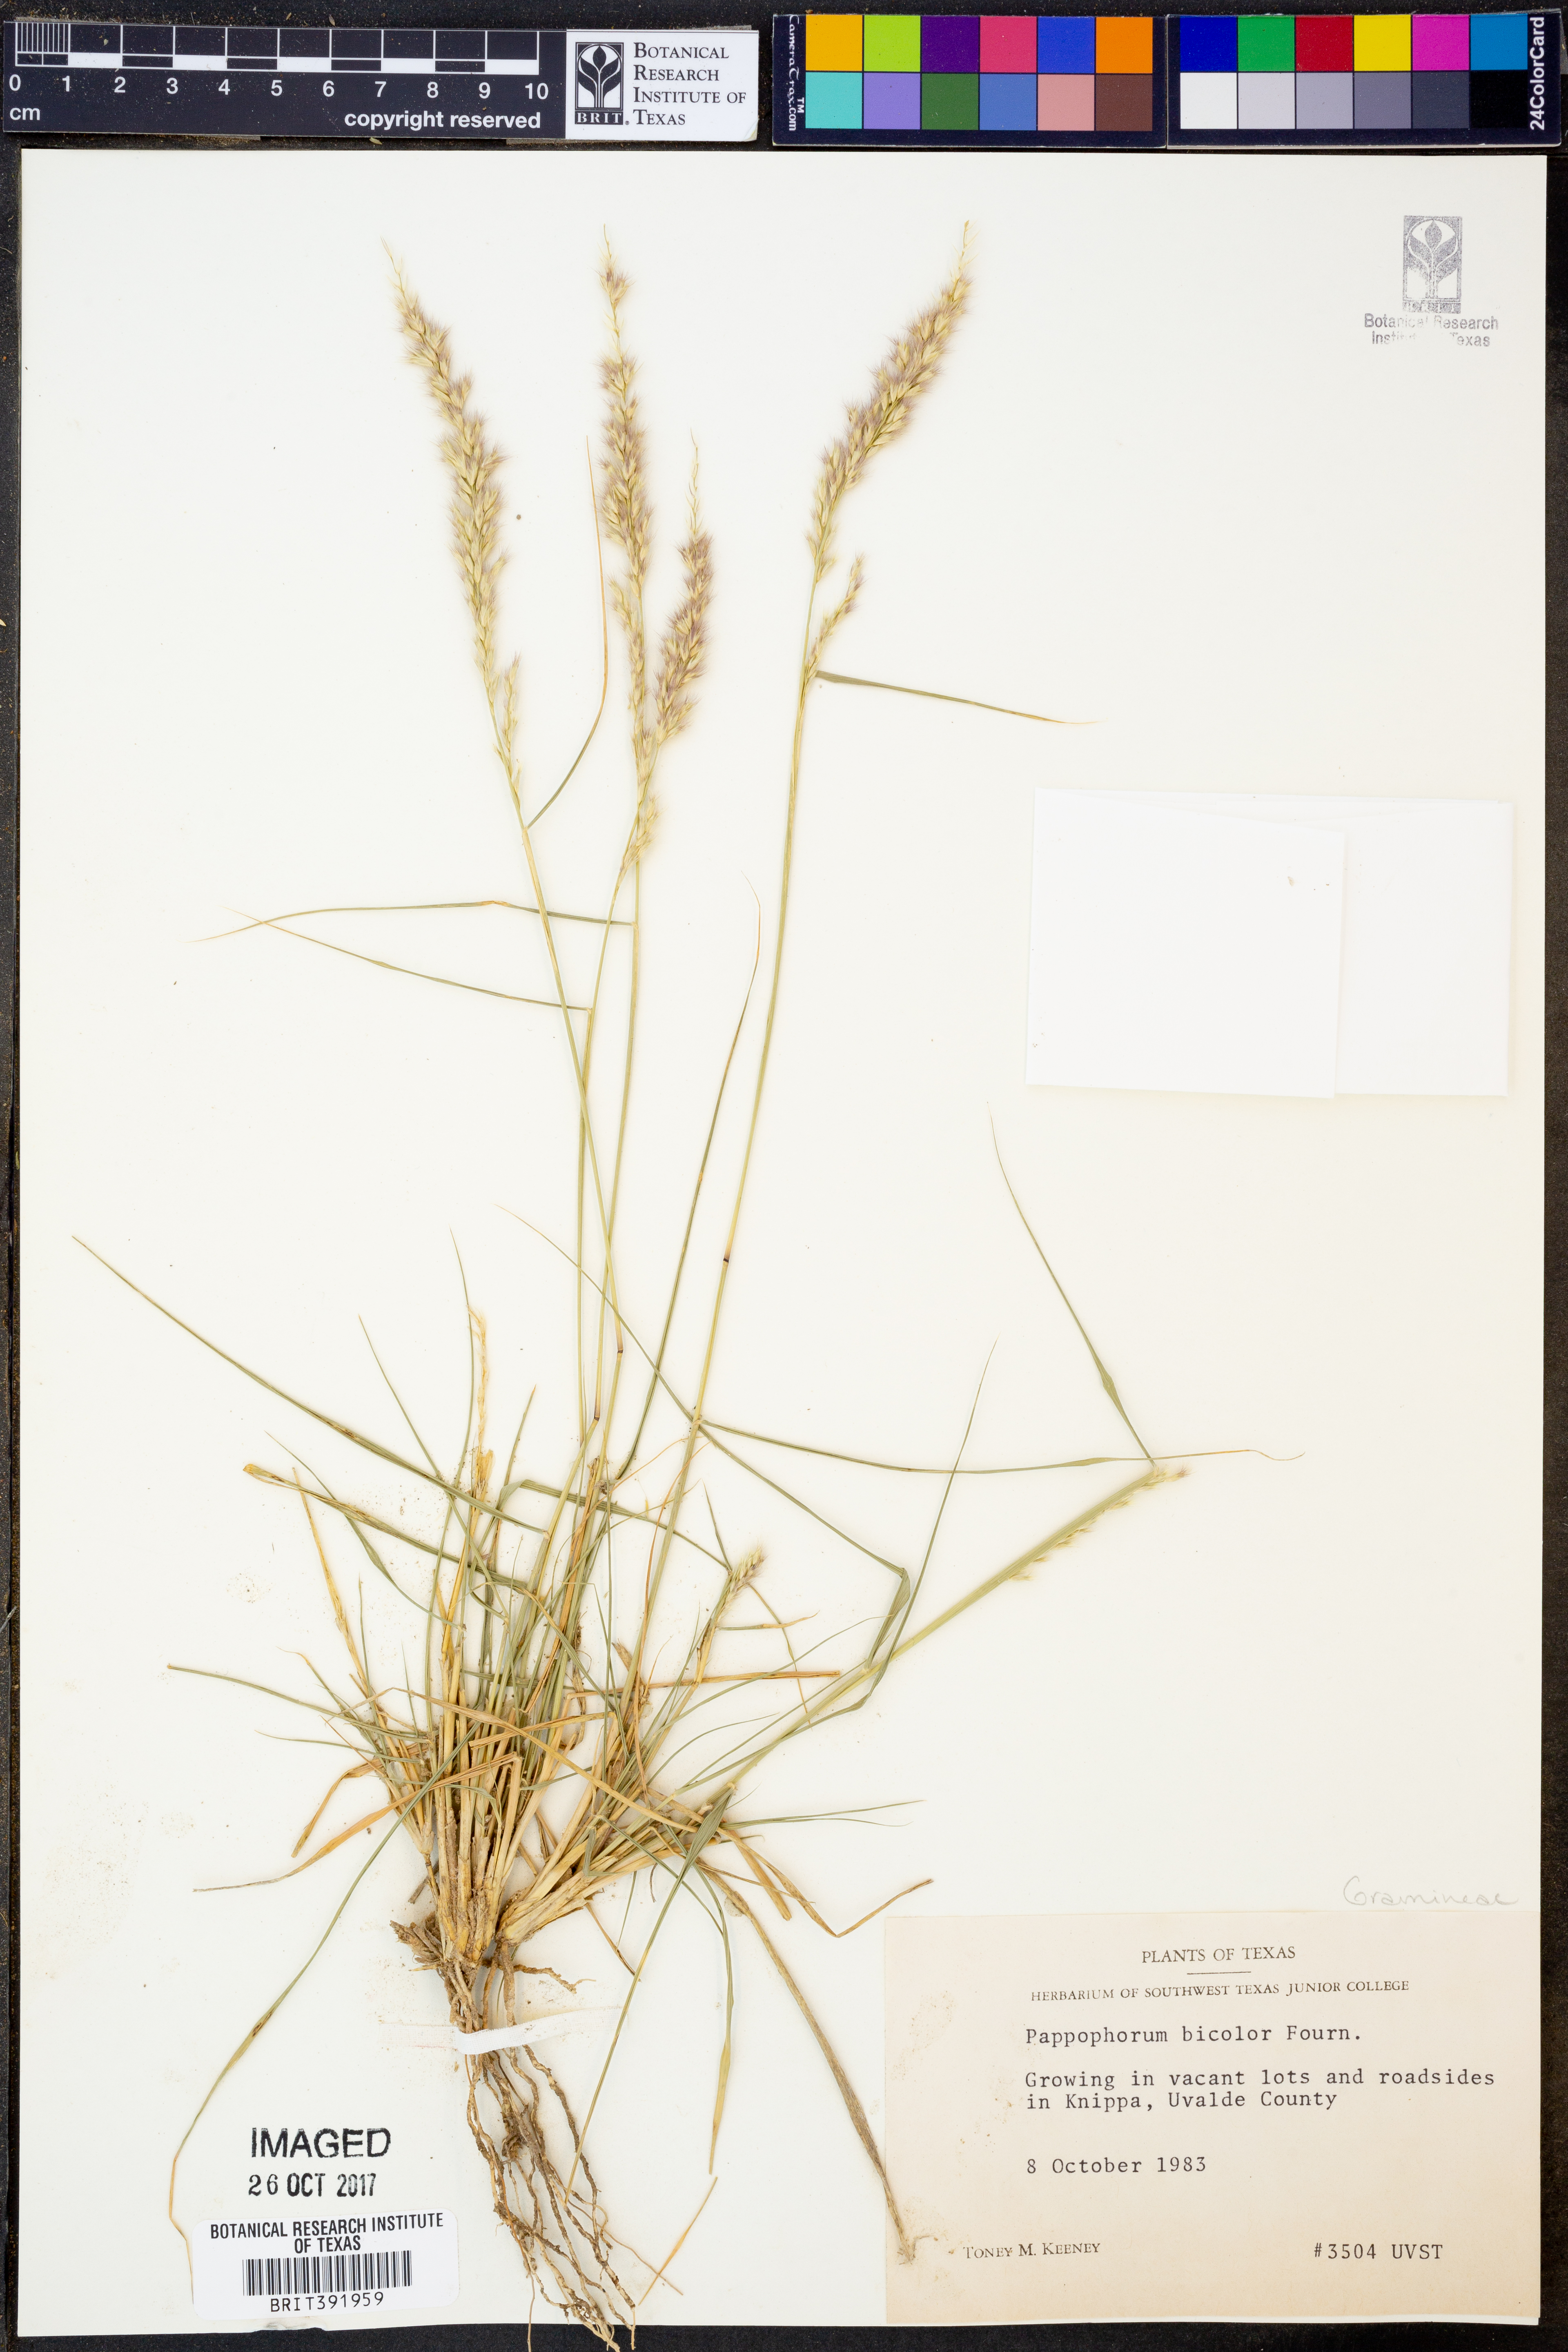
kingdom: Plantae
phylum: Tracheophyta
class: Liliopsida
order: Poales
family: Poaceae
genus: Pappophorum
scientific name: Pappophorum bicolor
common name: Pink pappus grass
